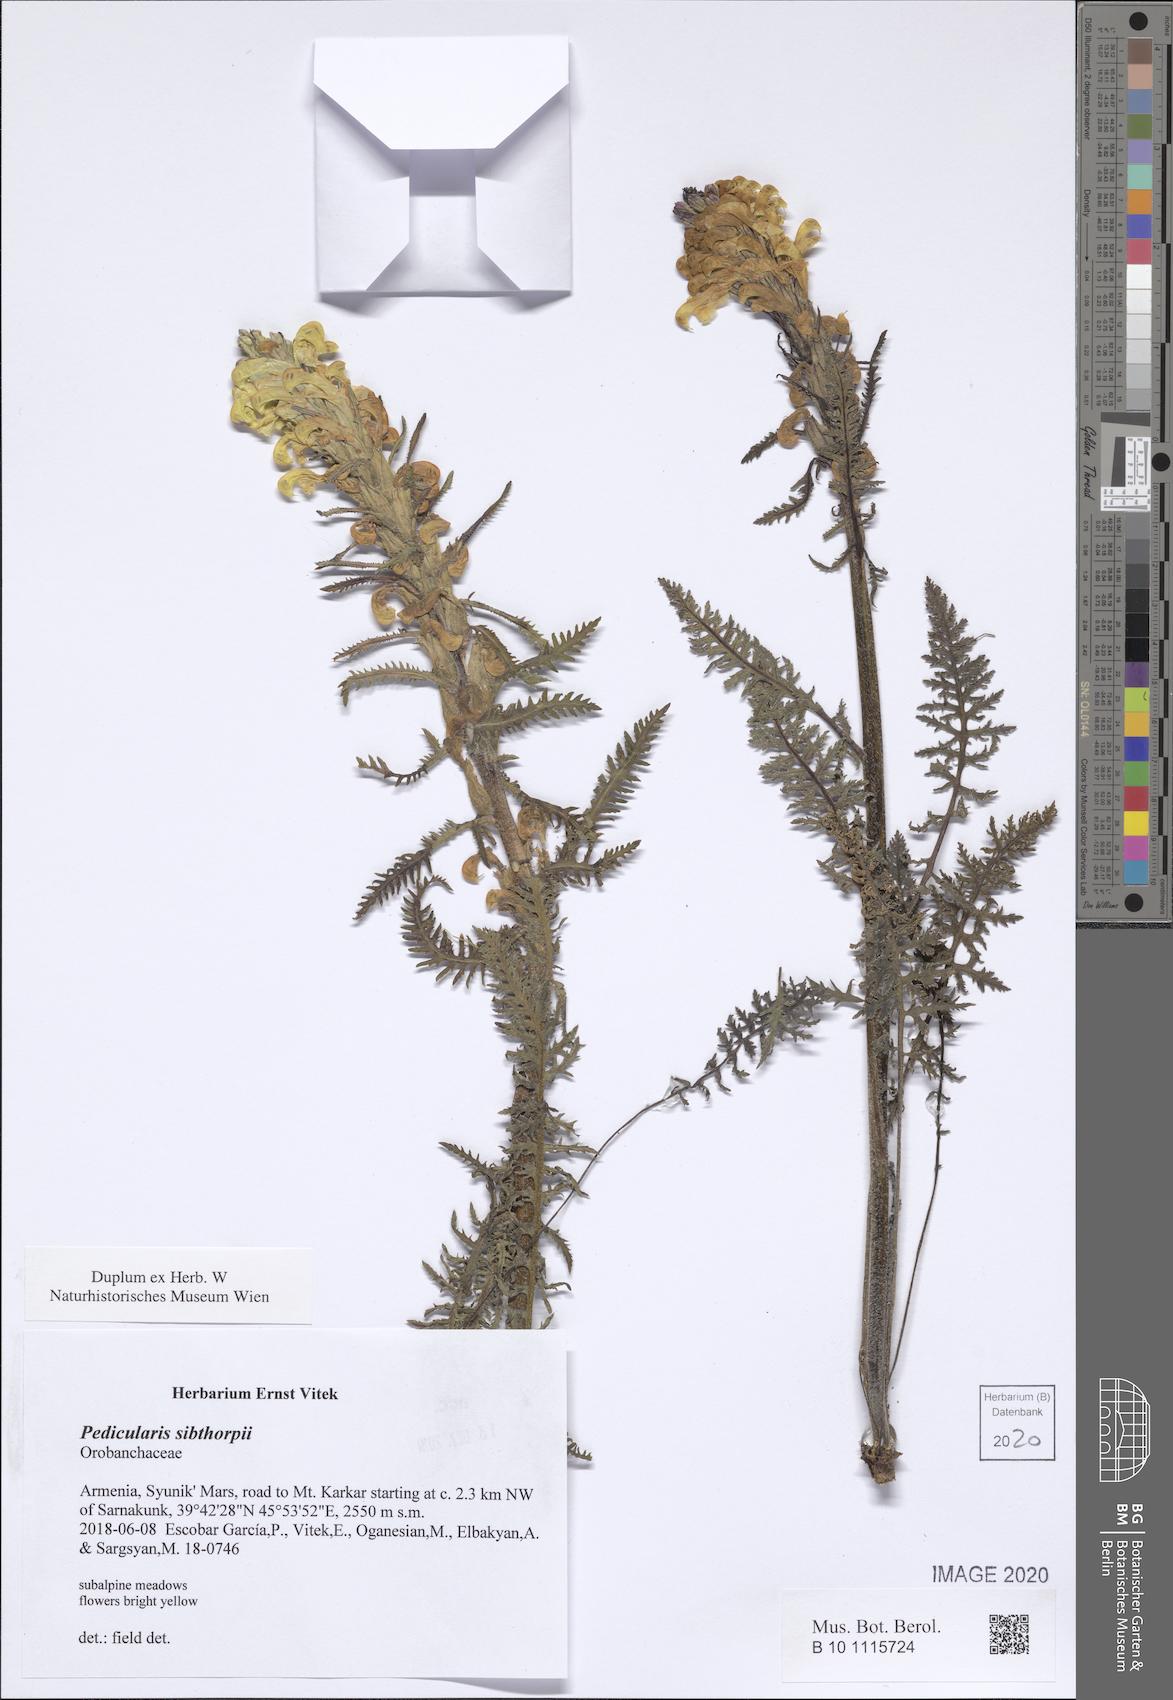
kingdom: Plantae
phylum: Tracheophyta
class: Magnoliopsida
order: Lamiales
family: Orobanchaceae
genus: Pedicularis
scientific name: Pedicularis sibthorpii
